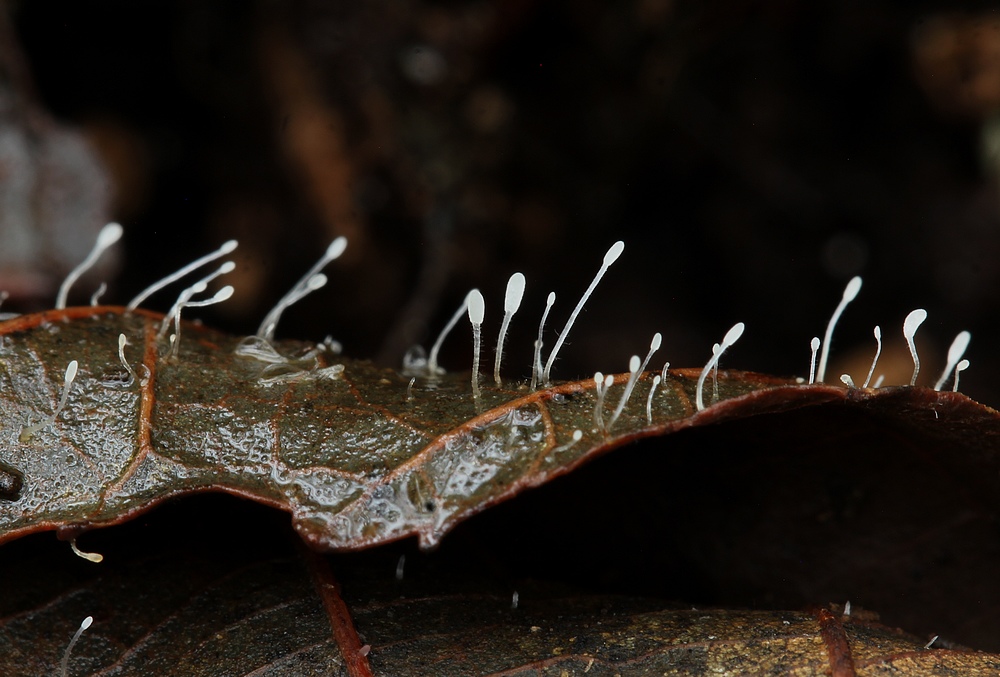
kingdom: Fungi
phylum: Basidiomycota
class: Agaricomycetes
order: Agaricales
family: Typhulaceae
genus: Typhula
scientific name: Typhula setipes
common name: liden trådkølle
